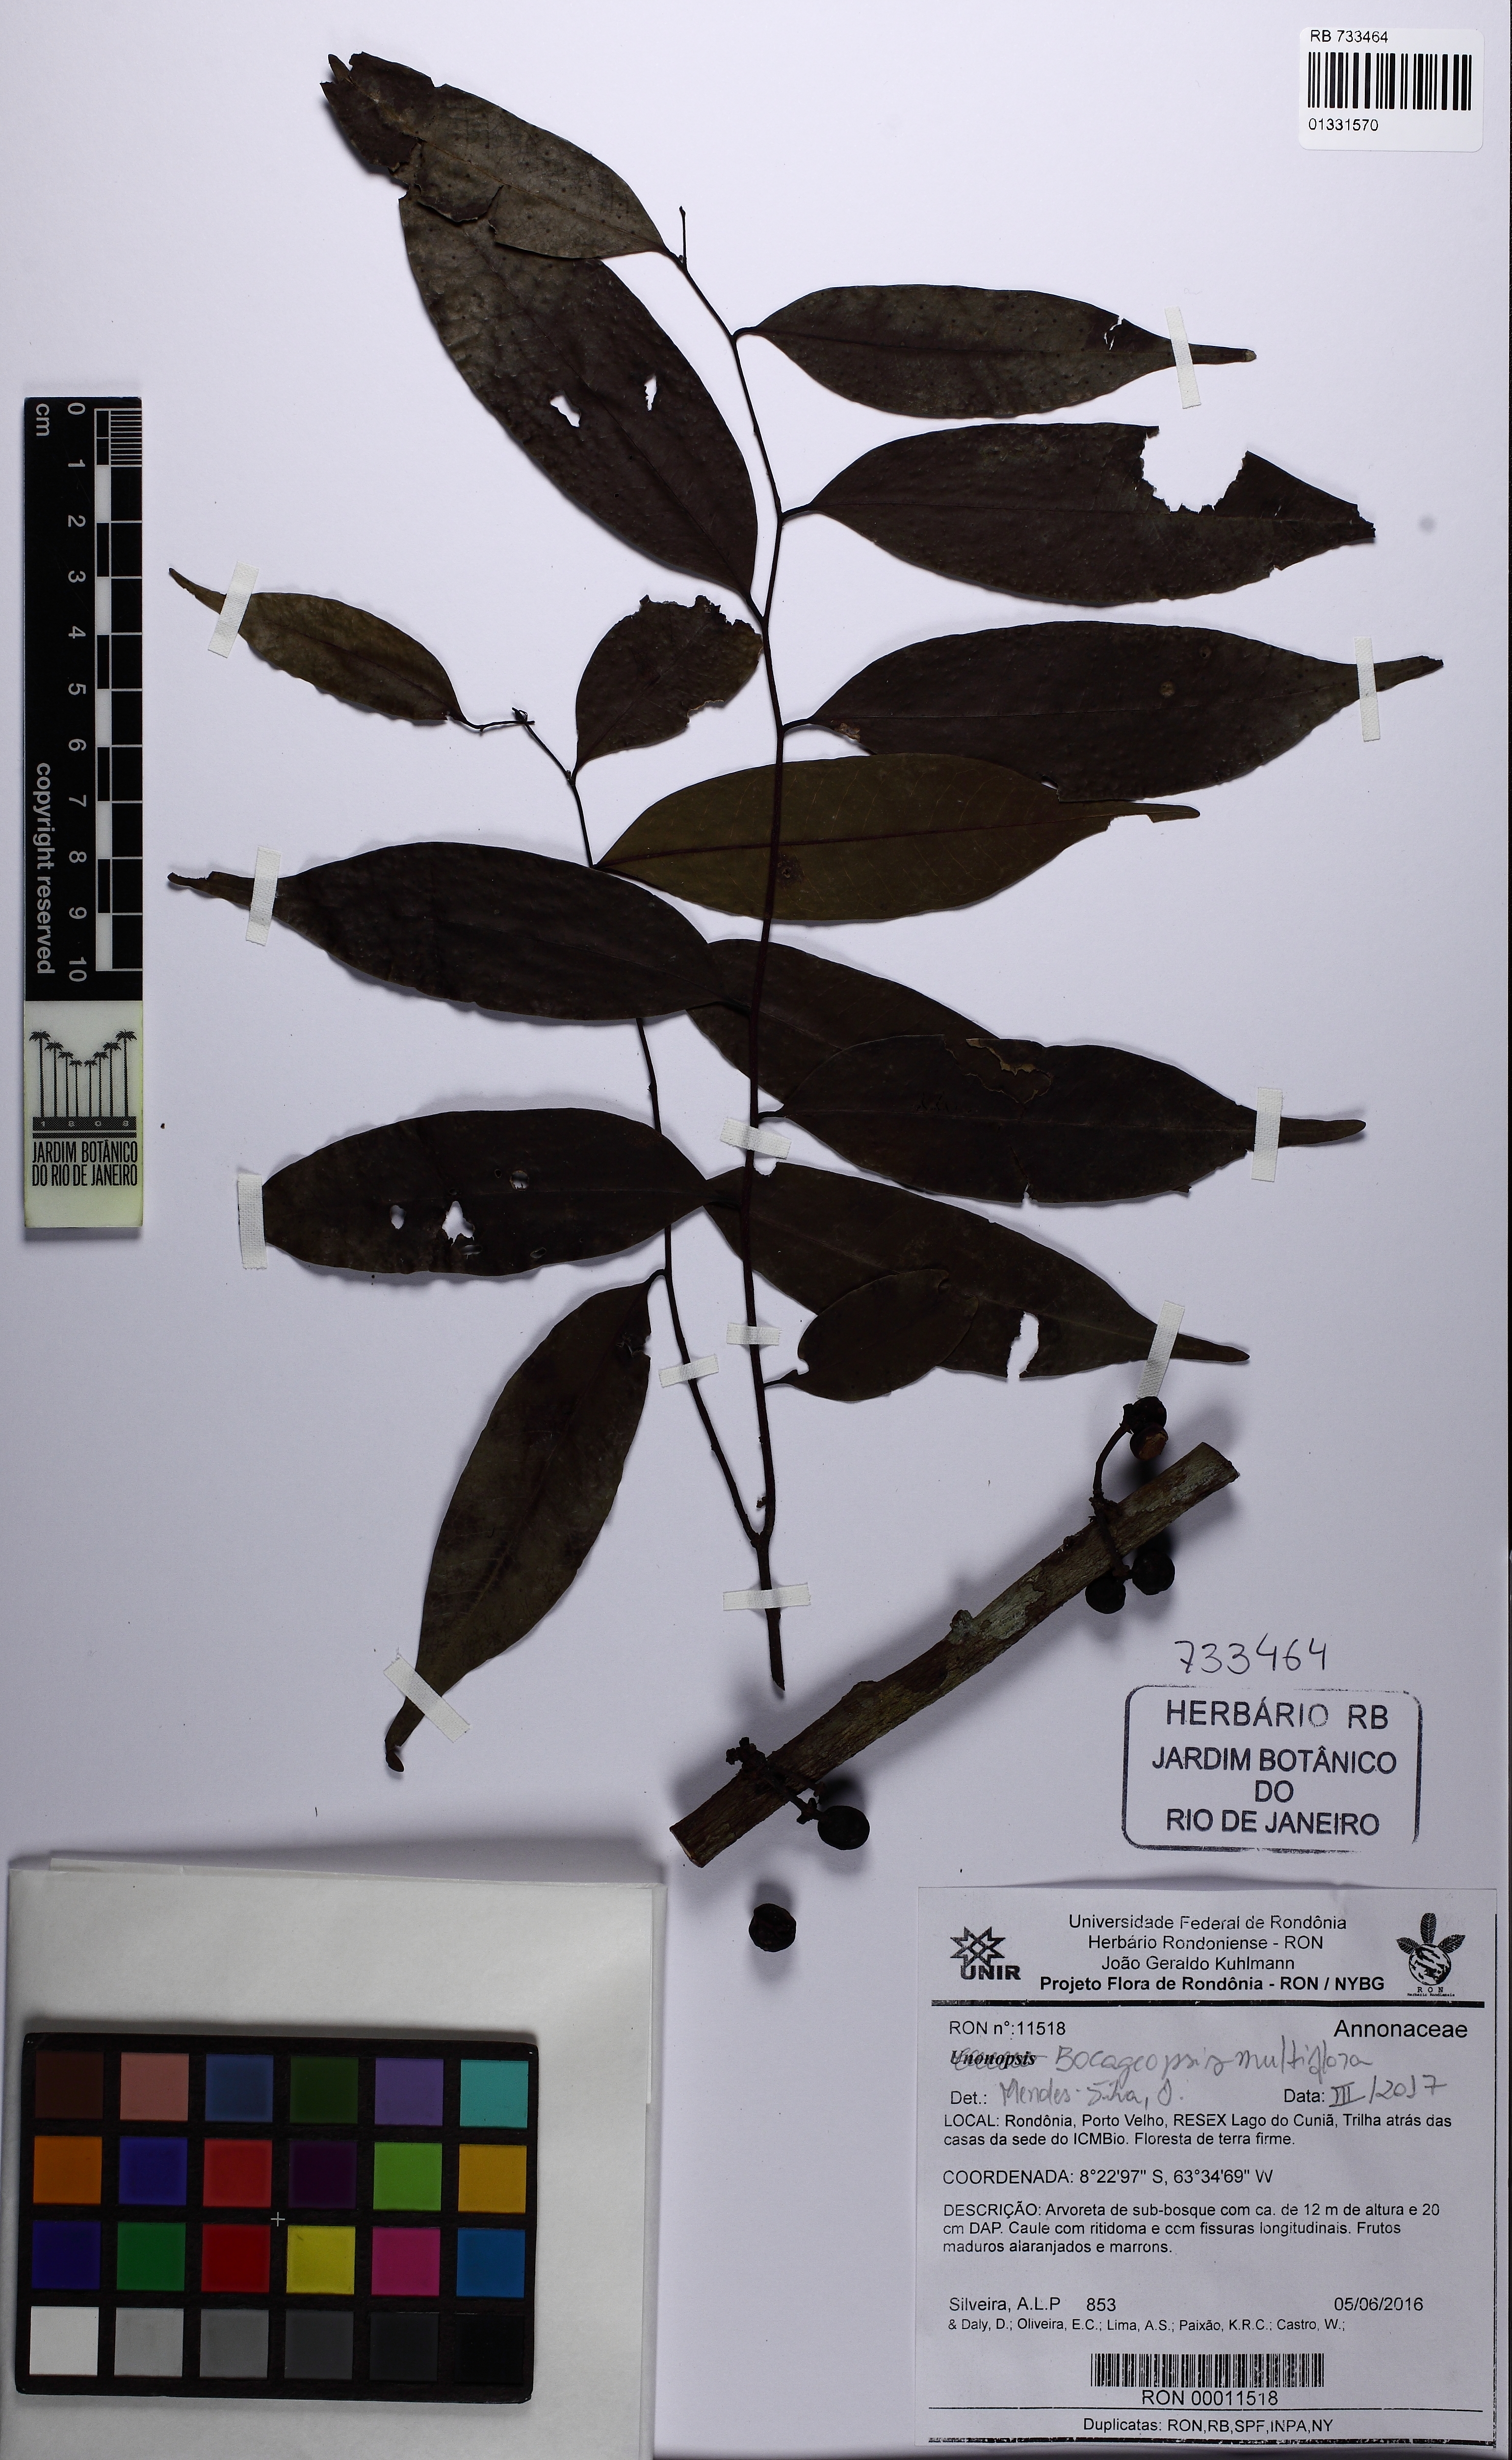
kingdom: Plantae
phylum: Tracheophyta
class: Magnoliopsida
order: Magnoliales
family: Annonaceae
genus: Bocageopsis
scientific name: Bocageopsis multiflora
